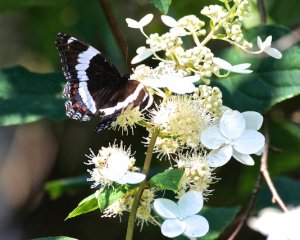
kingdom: Animalia
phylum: Arthropoda
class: Insecta
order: Lepidoptera
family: Nymphalidae
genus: Limenitis
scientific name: Limenitis arthemis
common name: Red-spotted Admiral
